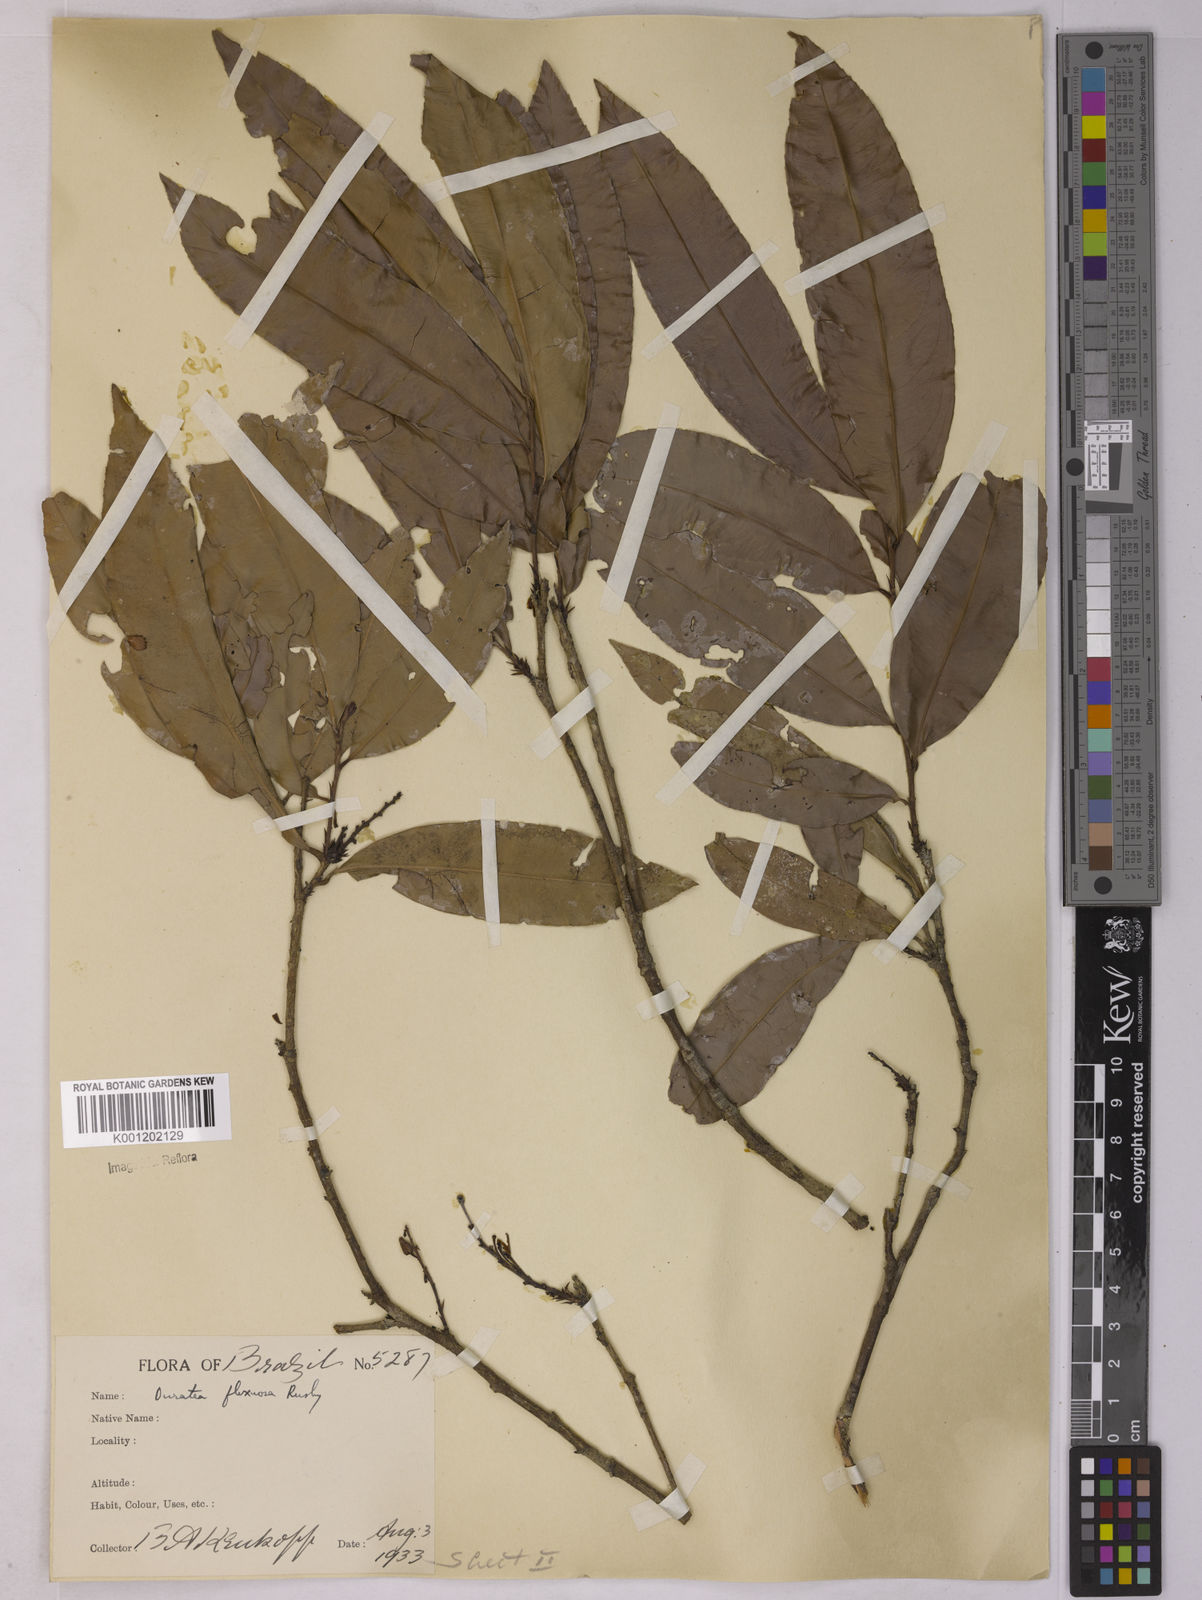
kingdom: Plantae
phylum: Tracheophyta
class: Magnoliopsida
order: Malpighiales
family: Ochnaceae
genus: Ouratea
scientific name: Ouratea flexuosa
